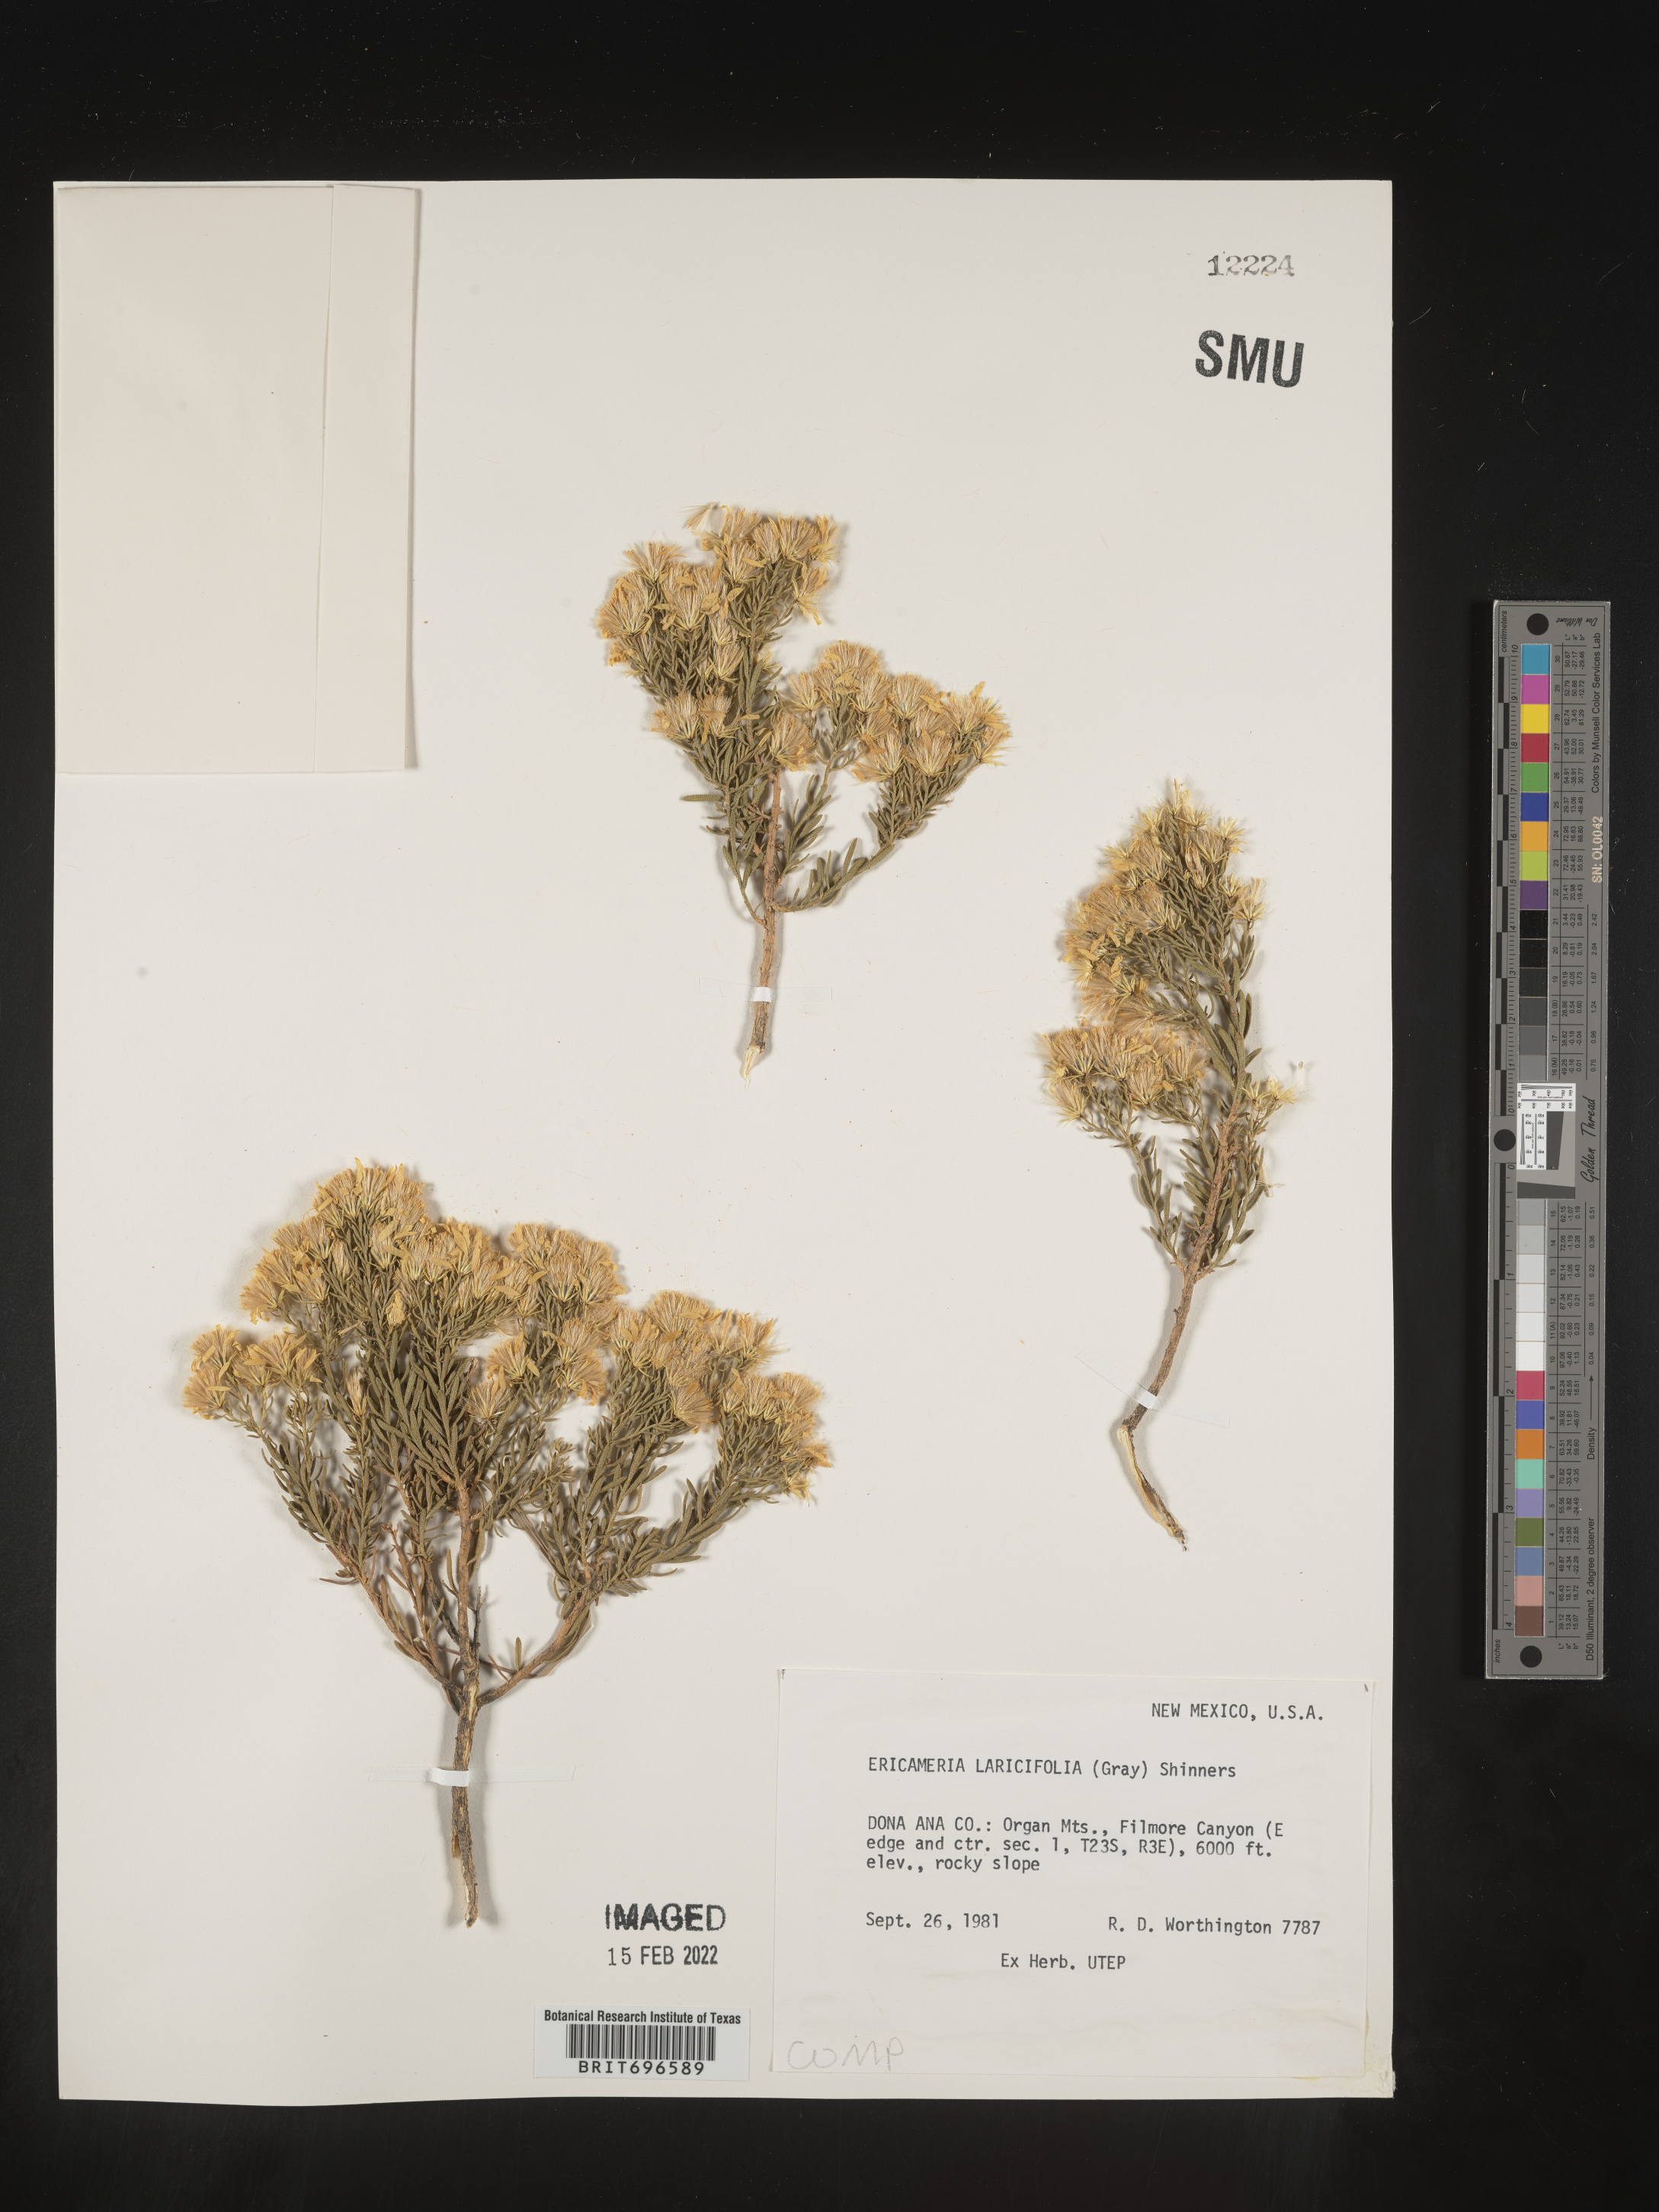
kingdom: Plantae
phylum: Tracheophyta
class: Magnoliopsida
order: Asterales
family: Asteraceae
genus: Ericameria
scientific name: Ericameria laricifolia
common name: Turpentine-bush
